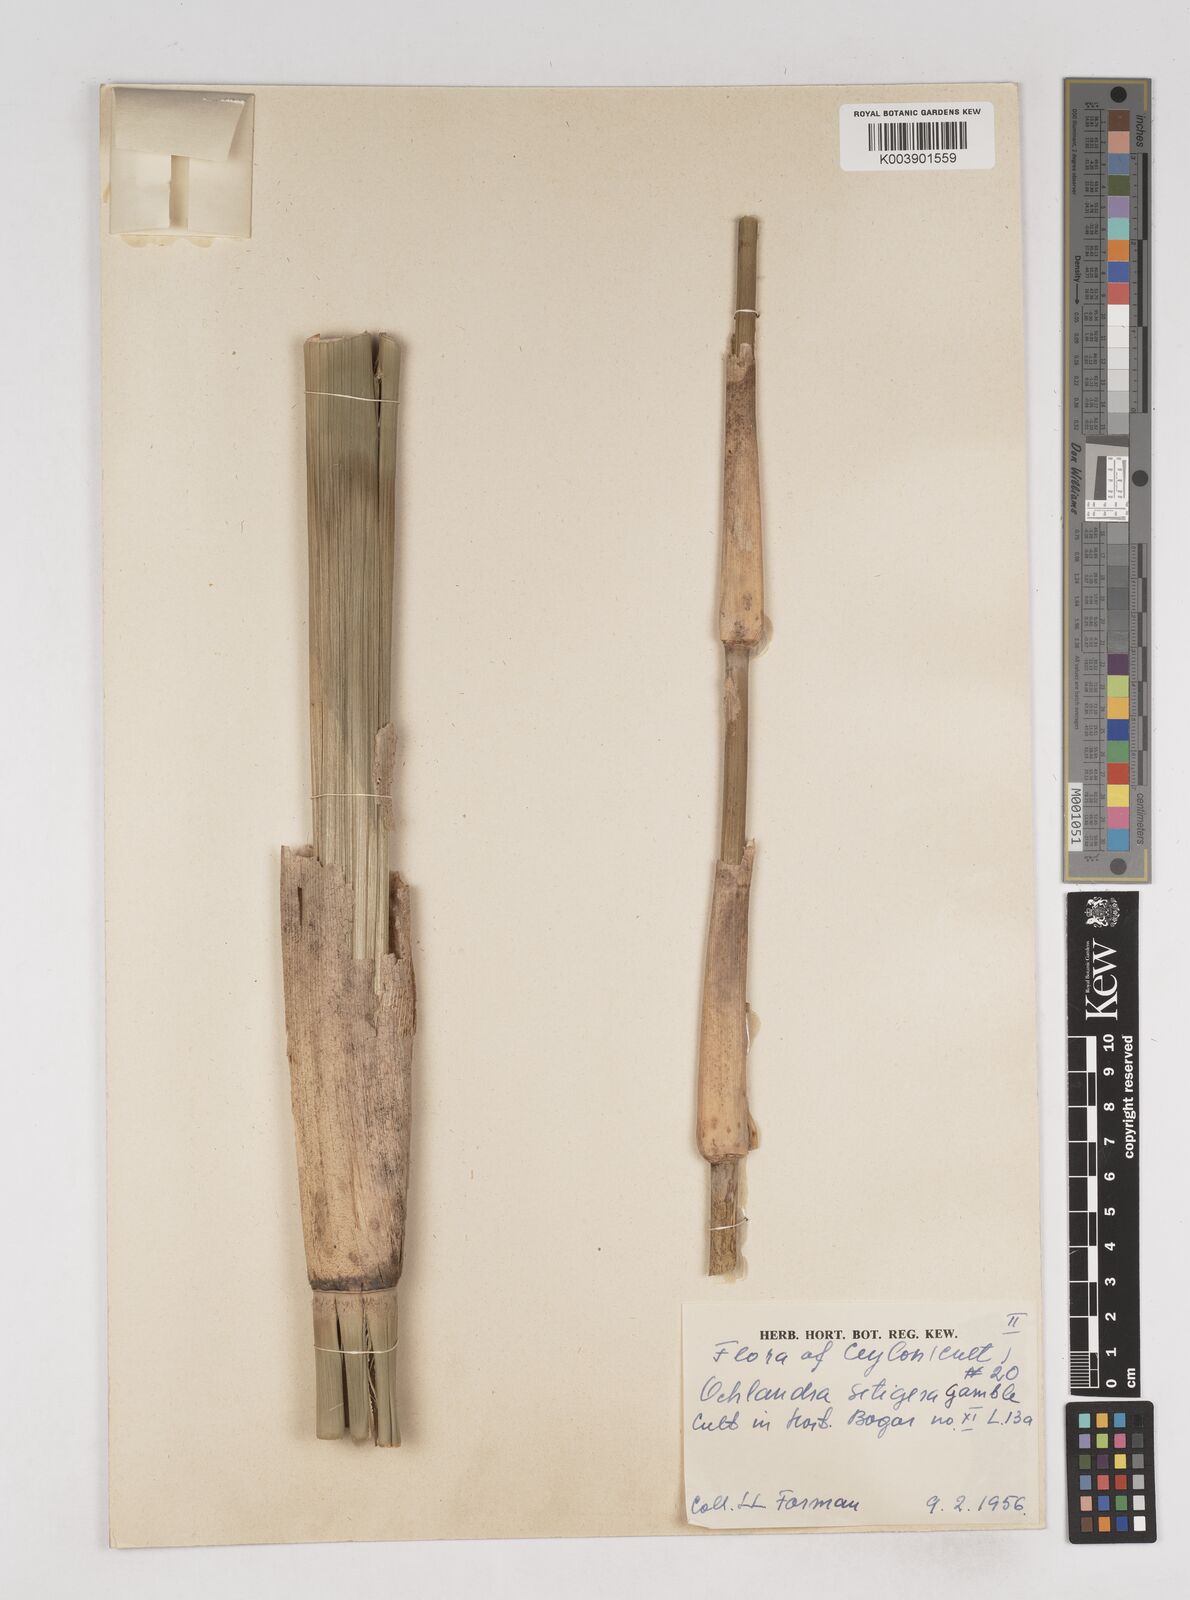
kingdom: Plantae
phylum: Tracheophyta
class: Liliopsida
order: Poales
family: Poaceae
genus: Ochlandra
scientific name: Ochlandra setigera
